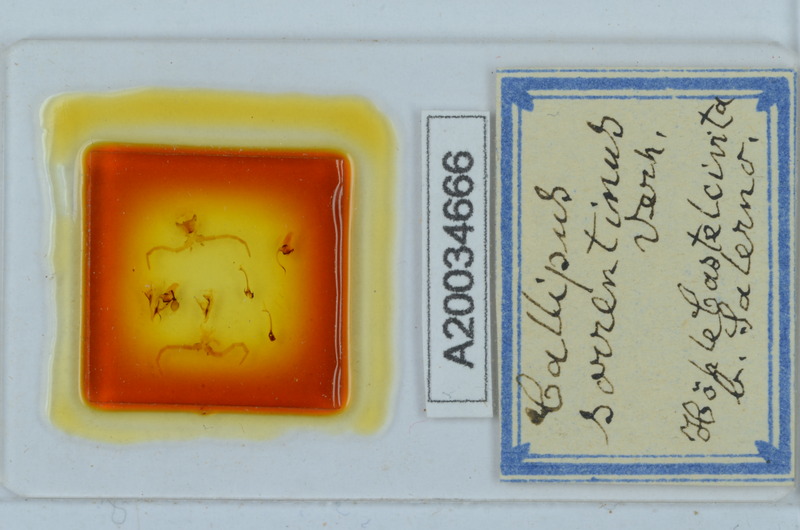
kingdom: Animalia
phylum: Arthropoda
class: Diplopoda
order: Callipodida
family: Callipodidae
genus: Callipus
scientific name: Callipus foetidissimus
